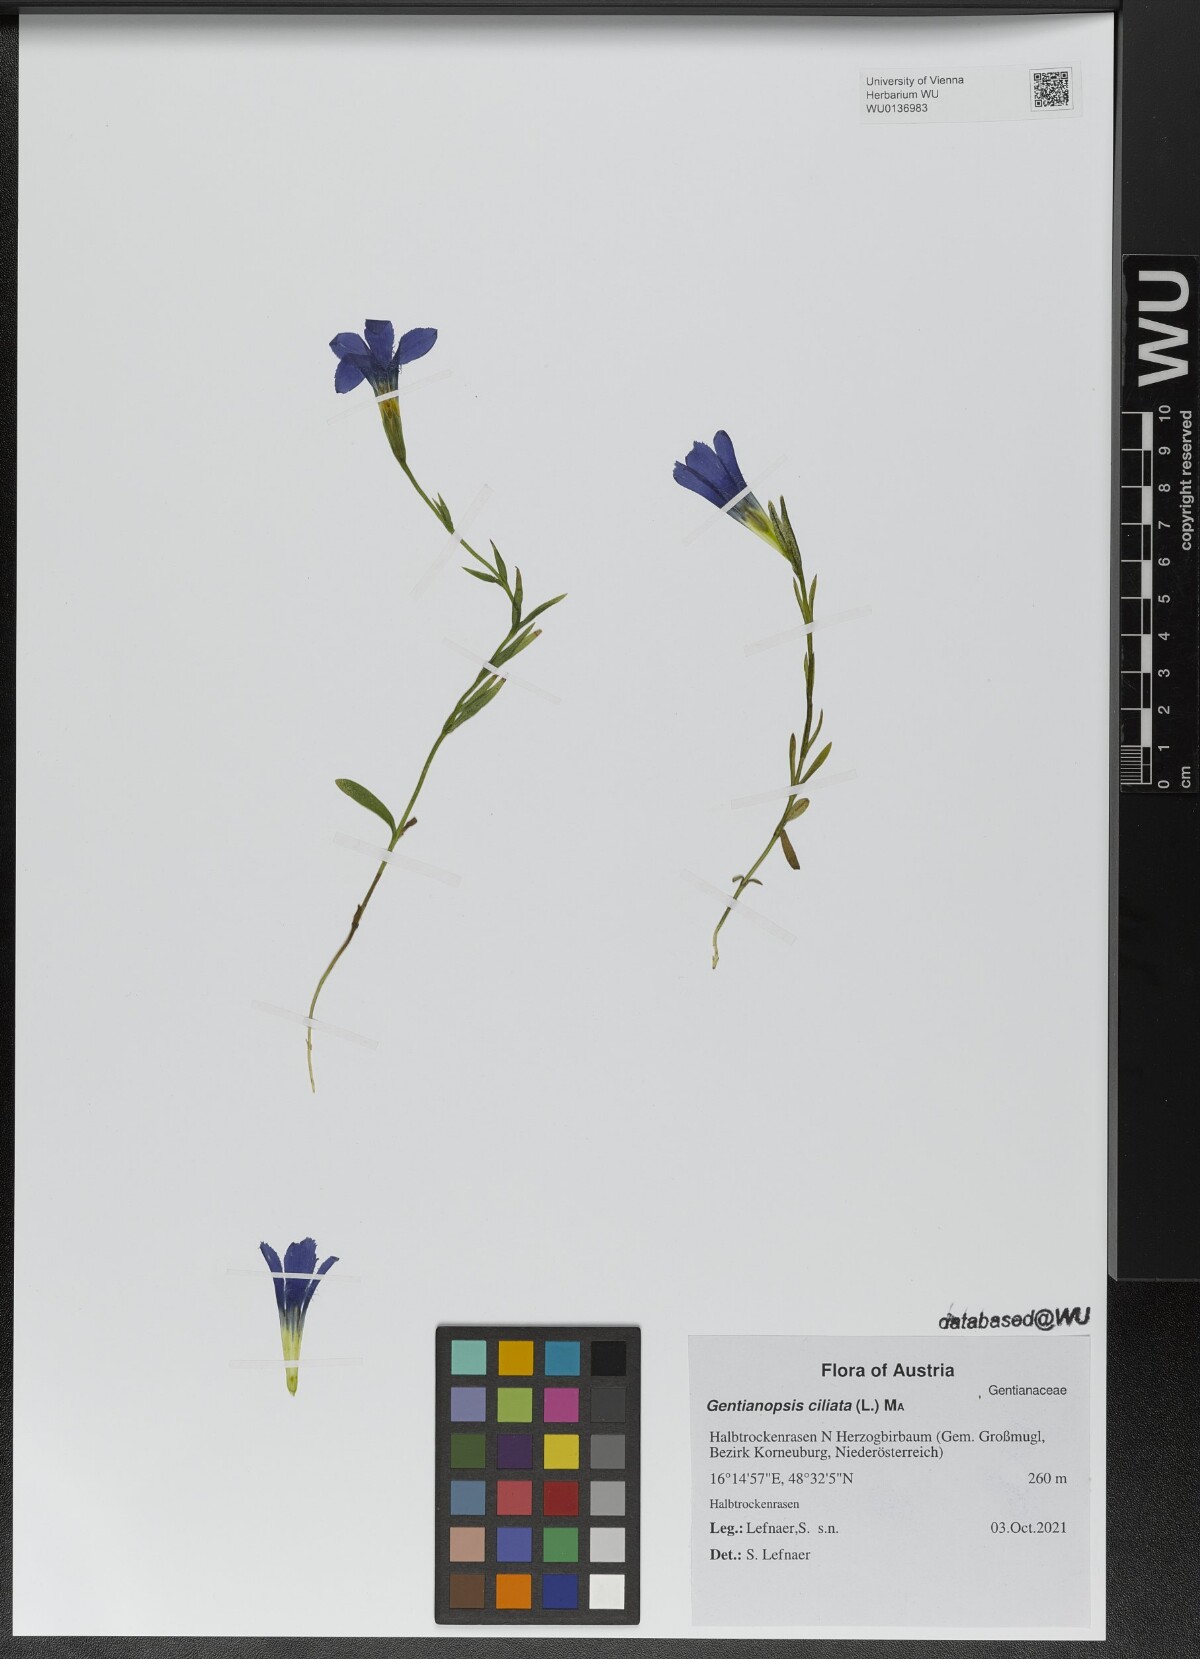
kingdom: Plantae
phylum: Tracheophyta
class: Magnoliopsida
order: Gentianales
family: Gentianaceae
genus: Gentianopsis
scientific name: Gentianopsis ciliata
